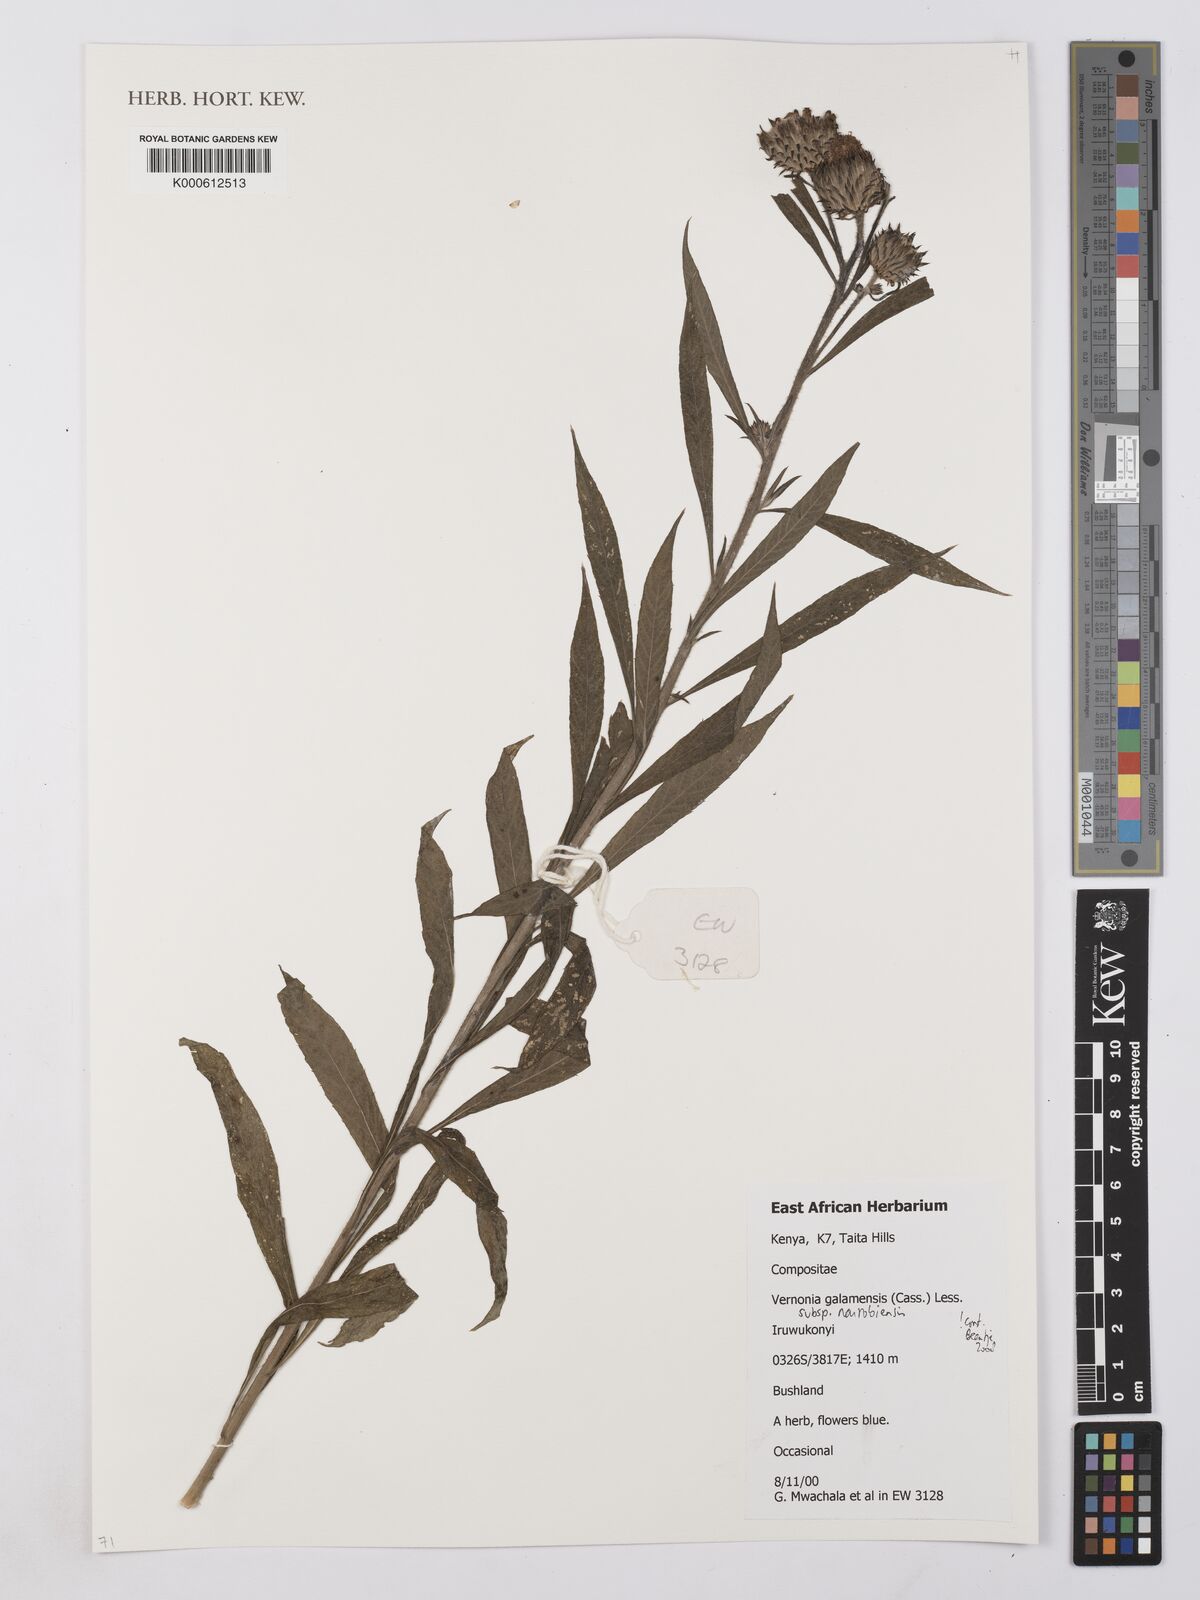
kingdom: Plantae
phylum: Tracheophyta
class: Magnoliopsida
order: Asterales
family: Asteraceae
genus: Vernonia
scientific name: Vernonia galamensis
